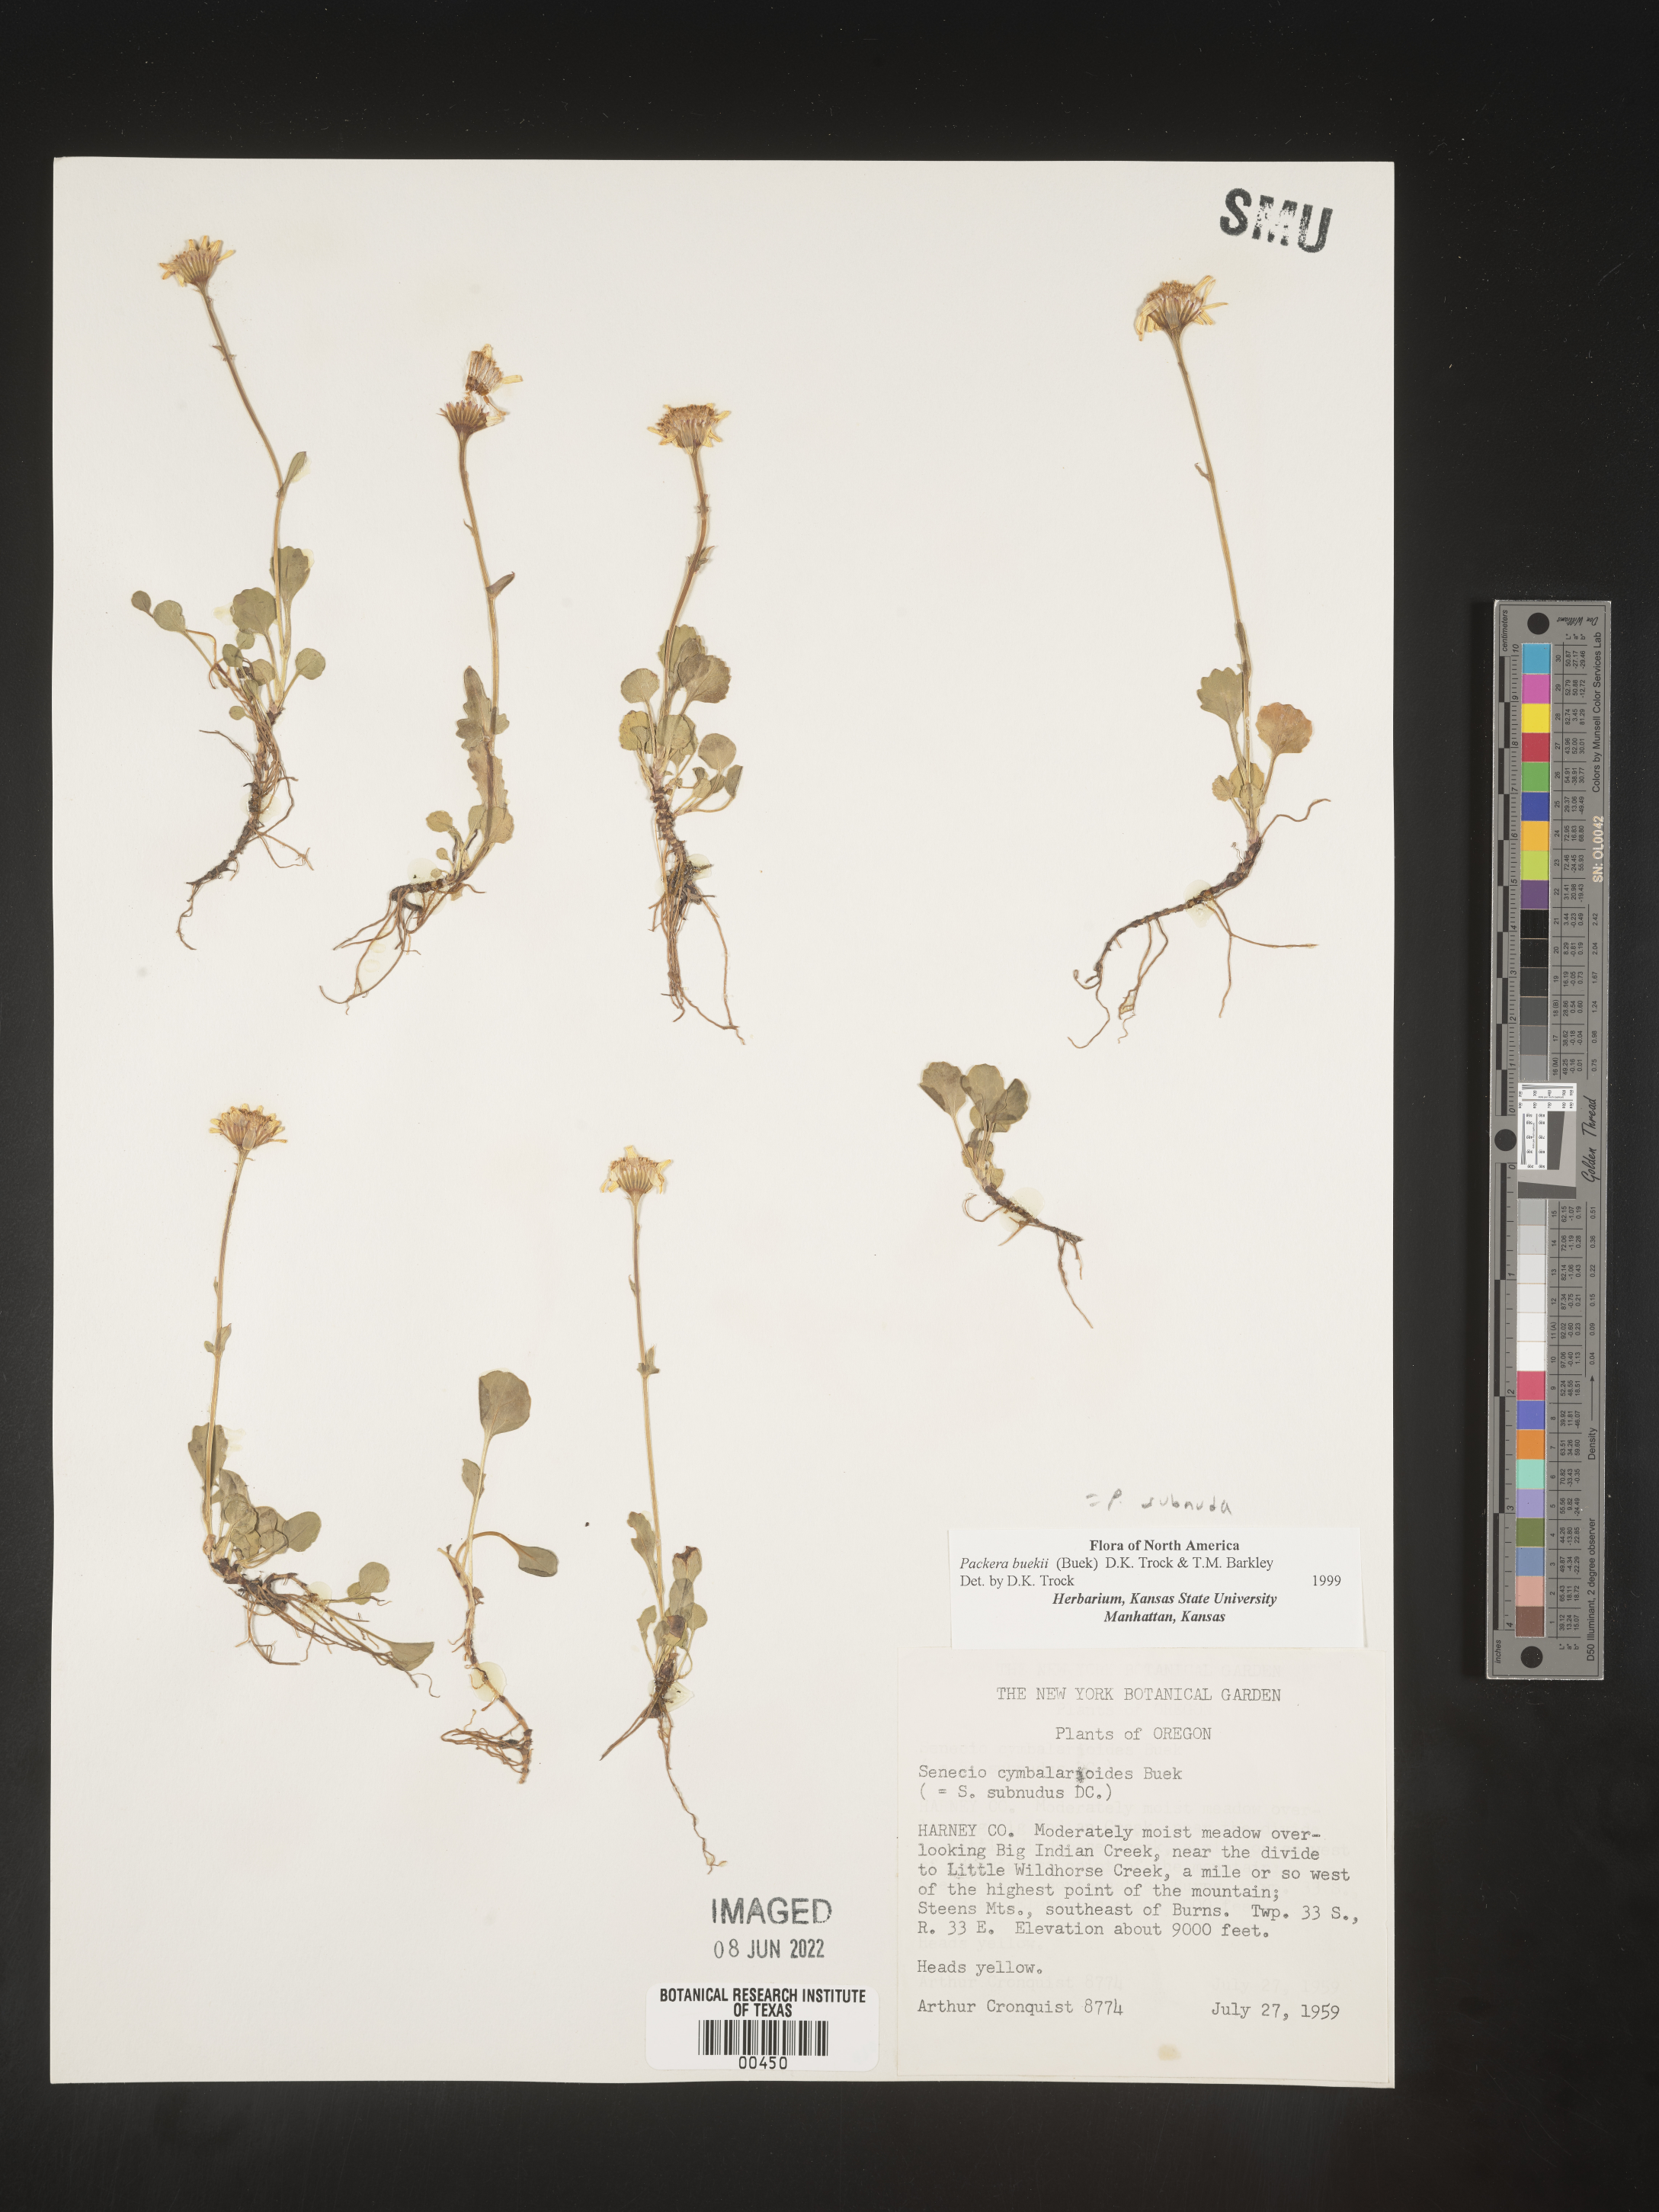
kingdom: Plantae
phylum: Tracheophyta
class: Magnoliopsida
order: Asterales
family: Asteraceae
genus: Packera
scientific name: Packera subnuda
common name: Buek's groundsel
